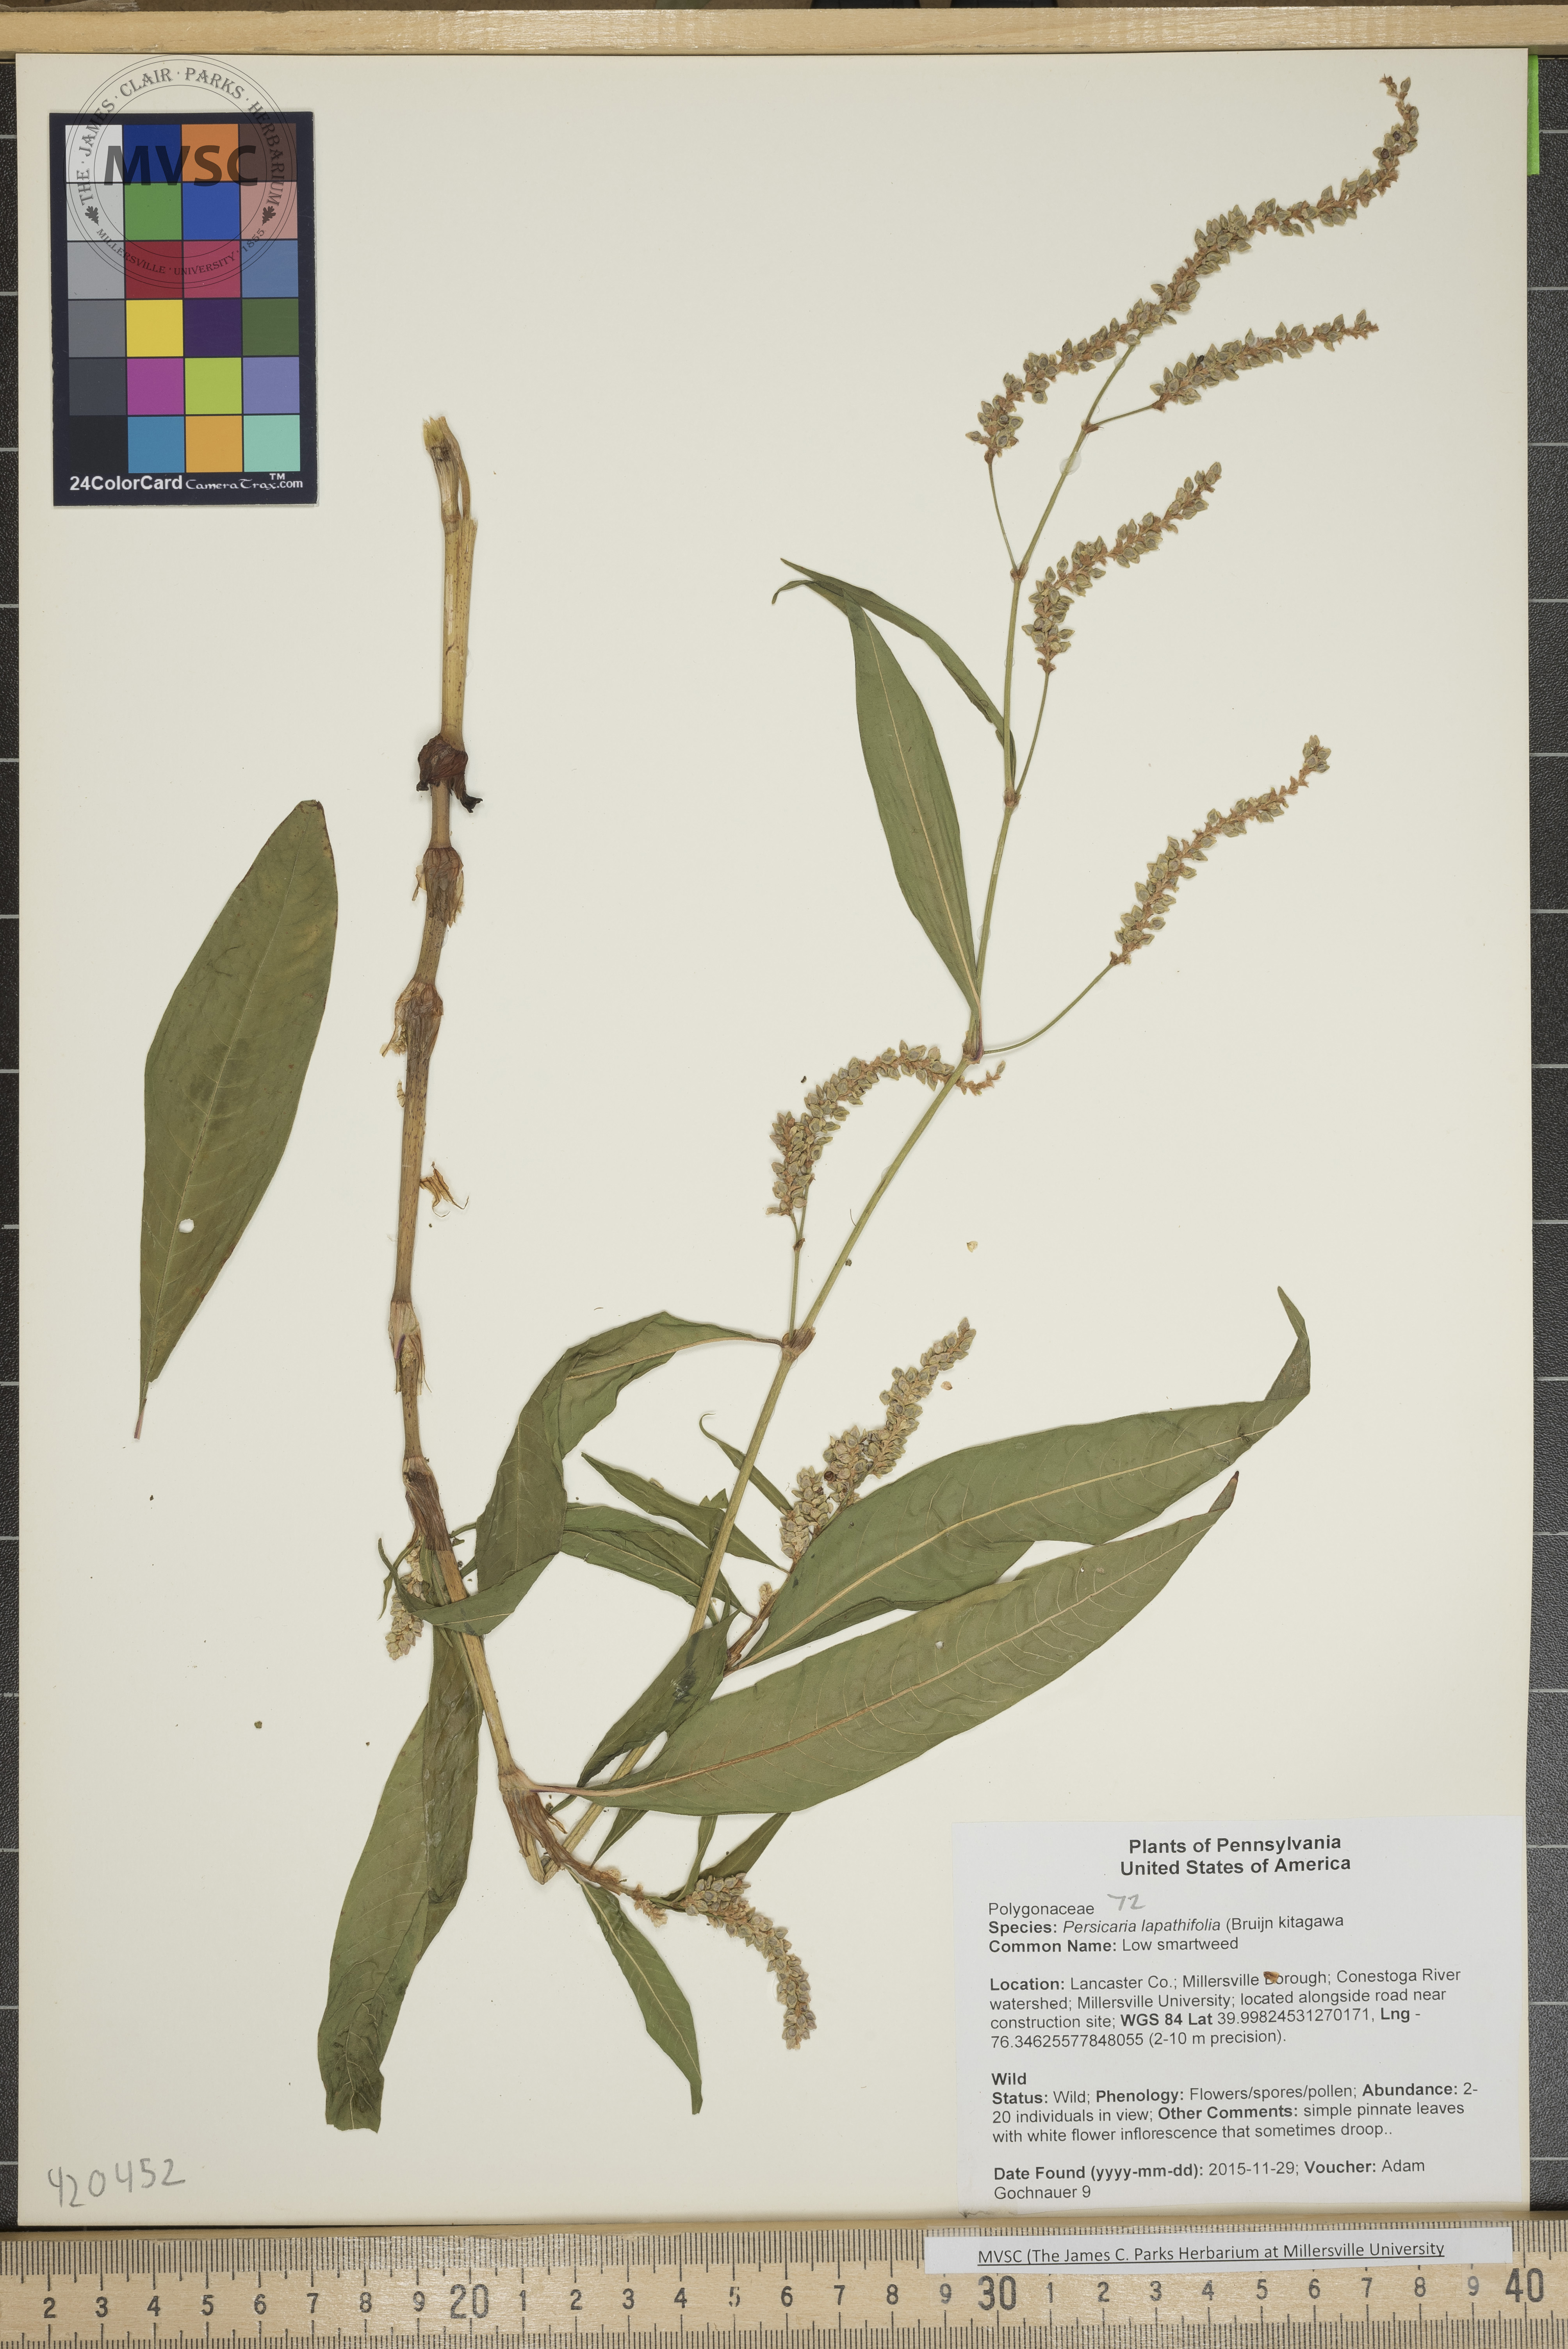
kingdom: Plantae
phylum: Tracheophyta
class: Magnoliopsida
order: Caryophyllales
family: Polygonaceae
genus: Persicaria
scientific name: Persicaria lapathifolia
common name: Low smartweed
